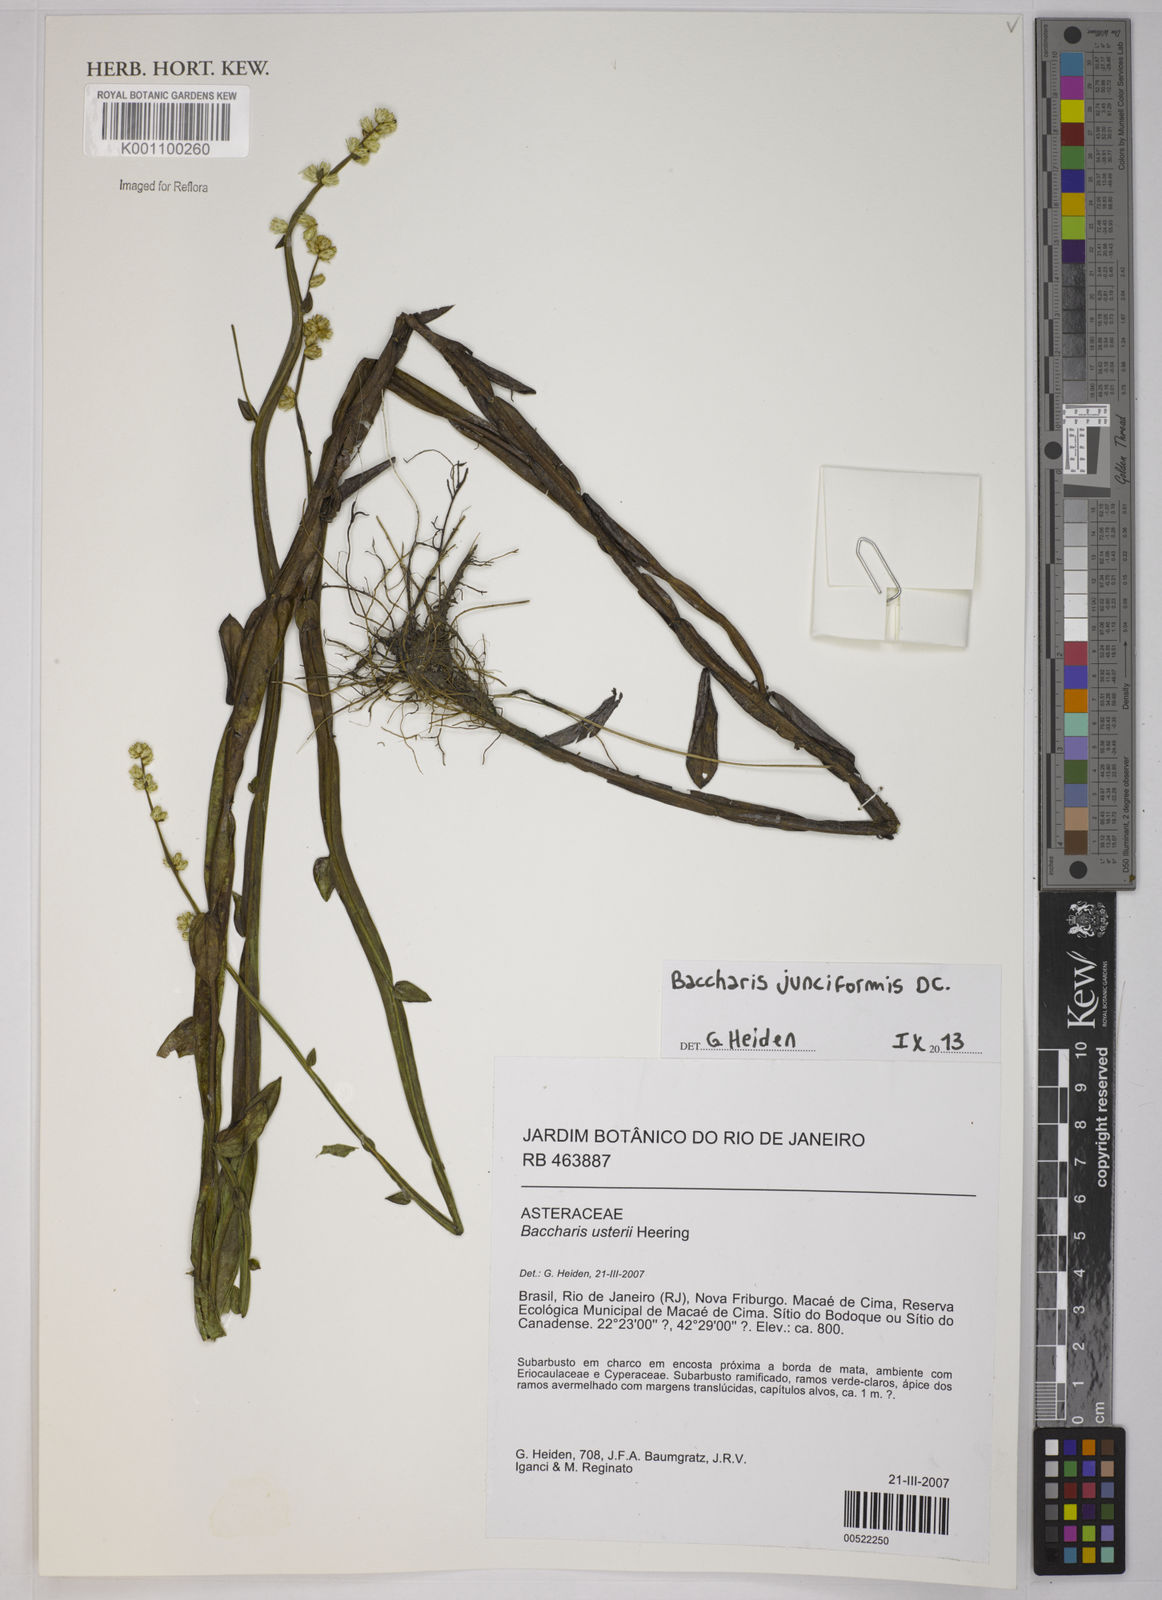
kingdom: Plantae
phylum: Tracheophyta
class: Magnoliopsida
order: Asterales
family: Asteraceae
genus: Baccharis
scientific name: Baccharis junciformis
